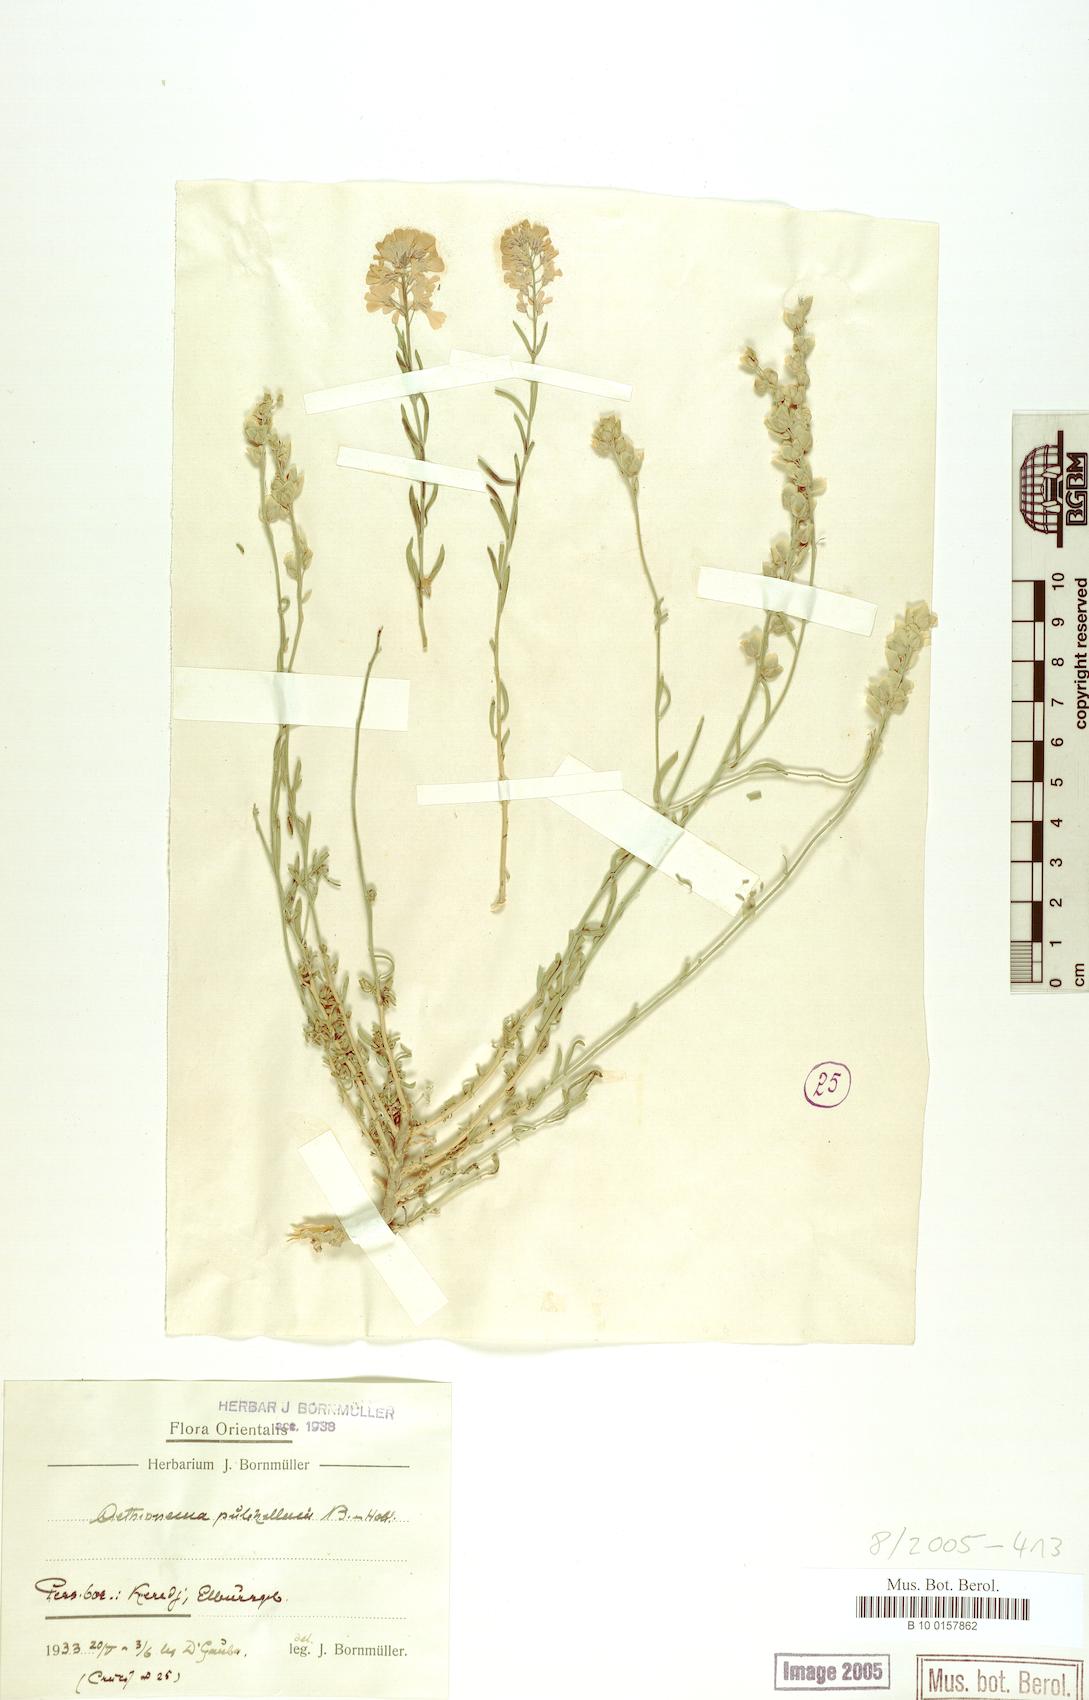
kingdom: Plantae
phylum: Tracheophyta
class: Magnoliopsida
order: Brassicales
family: Brassicaceae
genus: Aethionema
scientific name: Aethionema grandiflorum
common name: Persian stonecress
